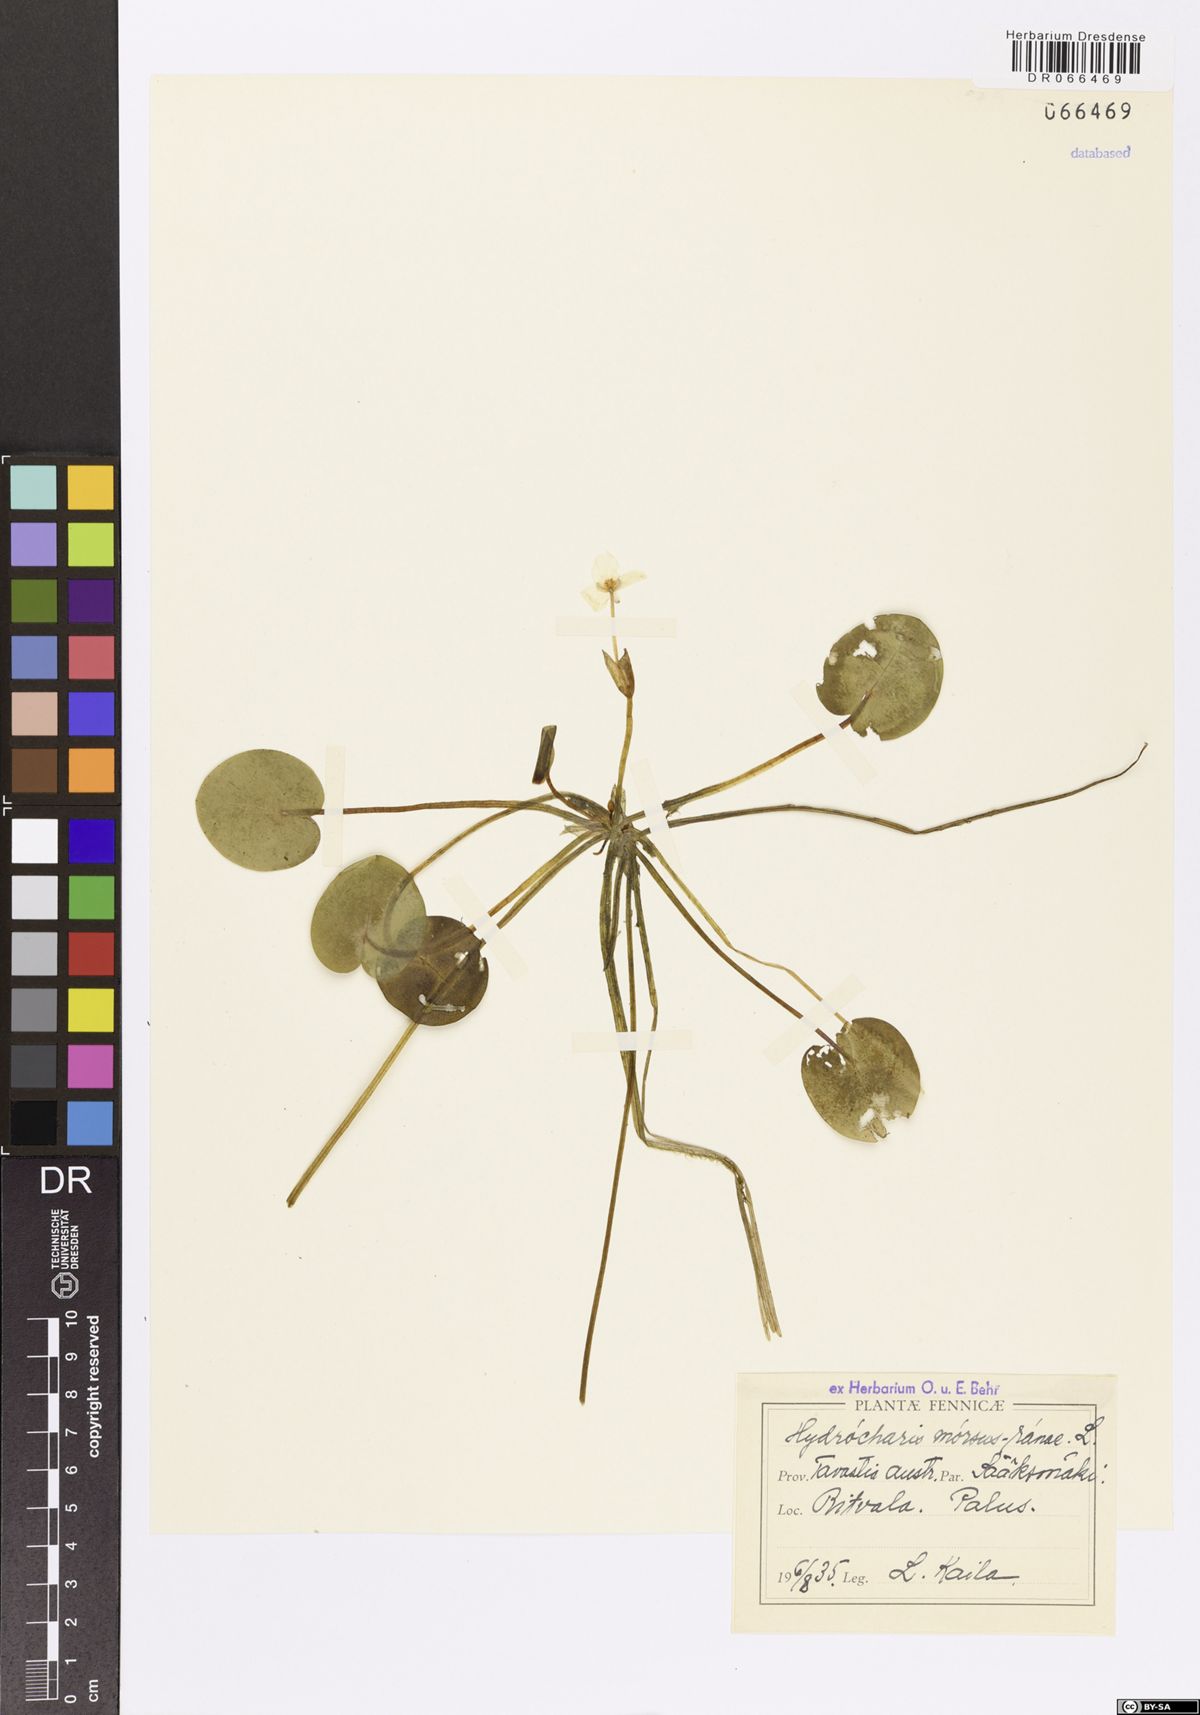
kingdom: Plantae
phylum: Tracheophyta
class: Liliopsida
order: Alismatales
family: Hydrocharitaceae
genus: Hydrocharis
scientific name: Hydrocharis morsus-ranae
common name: Frogbit
